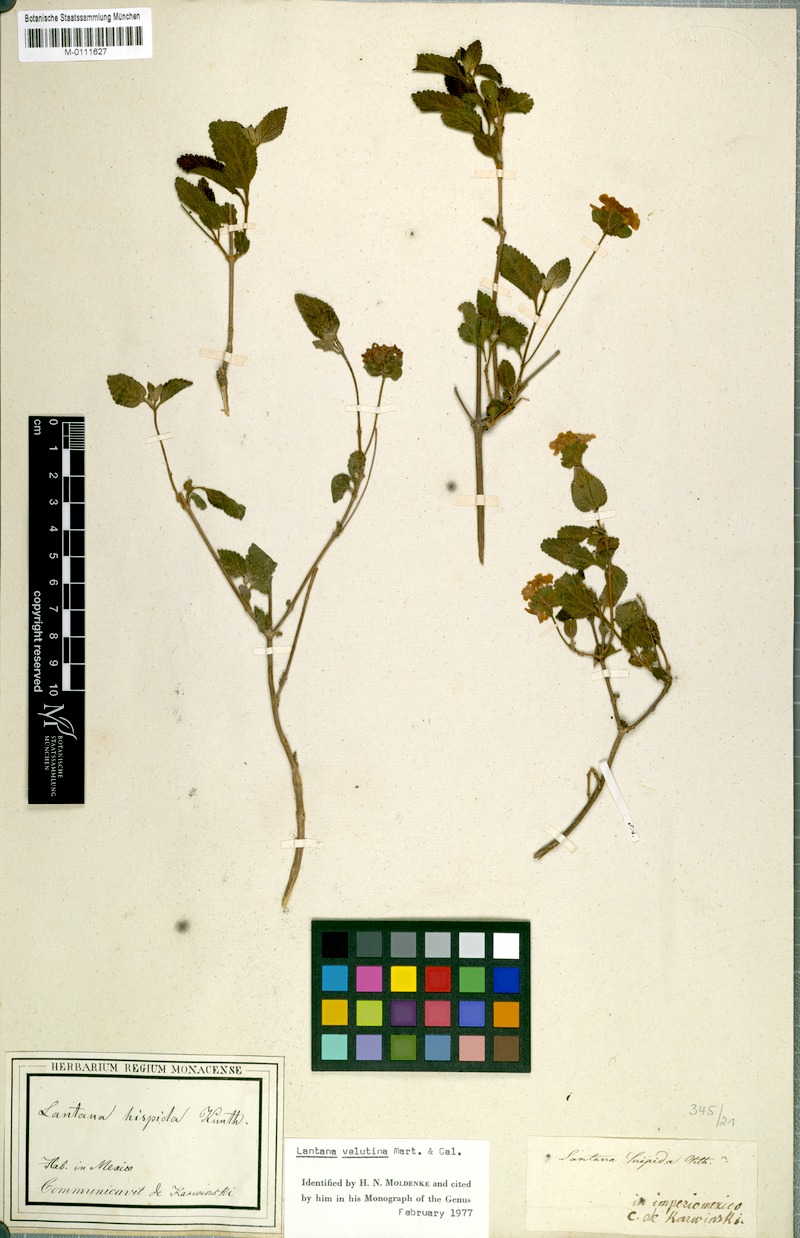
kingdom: Plantae
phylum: Tracheophyta
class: Magnoliopsida
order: Lamiales
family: Verbenaceae
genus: Lantana
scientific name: Lantana horrida
